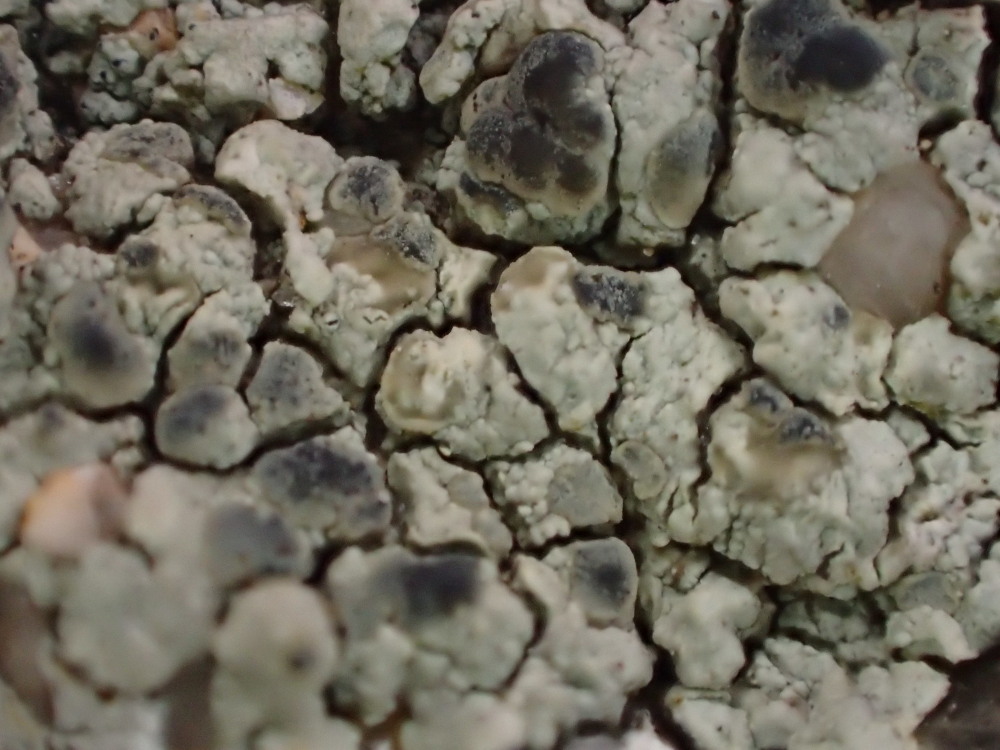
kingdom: Fungi
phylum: Ascomycota
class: Lecanoromycetes
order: Lecanorales
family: Lecanoraceae
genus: Glaucomaria
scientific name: Glaucomaria sulphurea
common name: svovlgul kantskivelav
